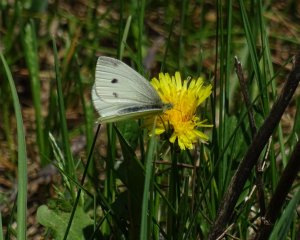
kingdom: Animalia
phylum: Arthropoda
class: Insecta
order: Lepidoptera
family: Pieridae
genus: Pieris
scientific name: Pieris rapae
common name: Cabbage White
